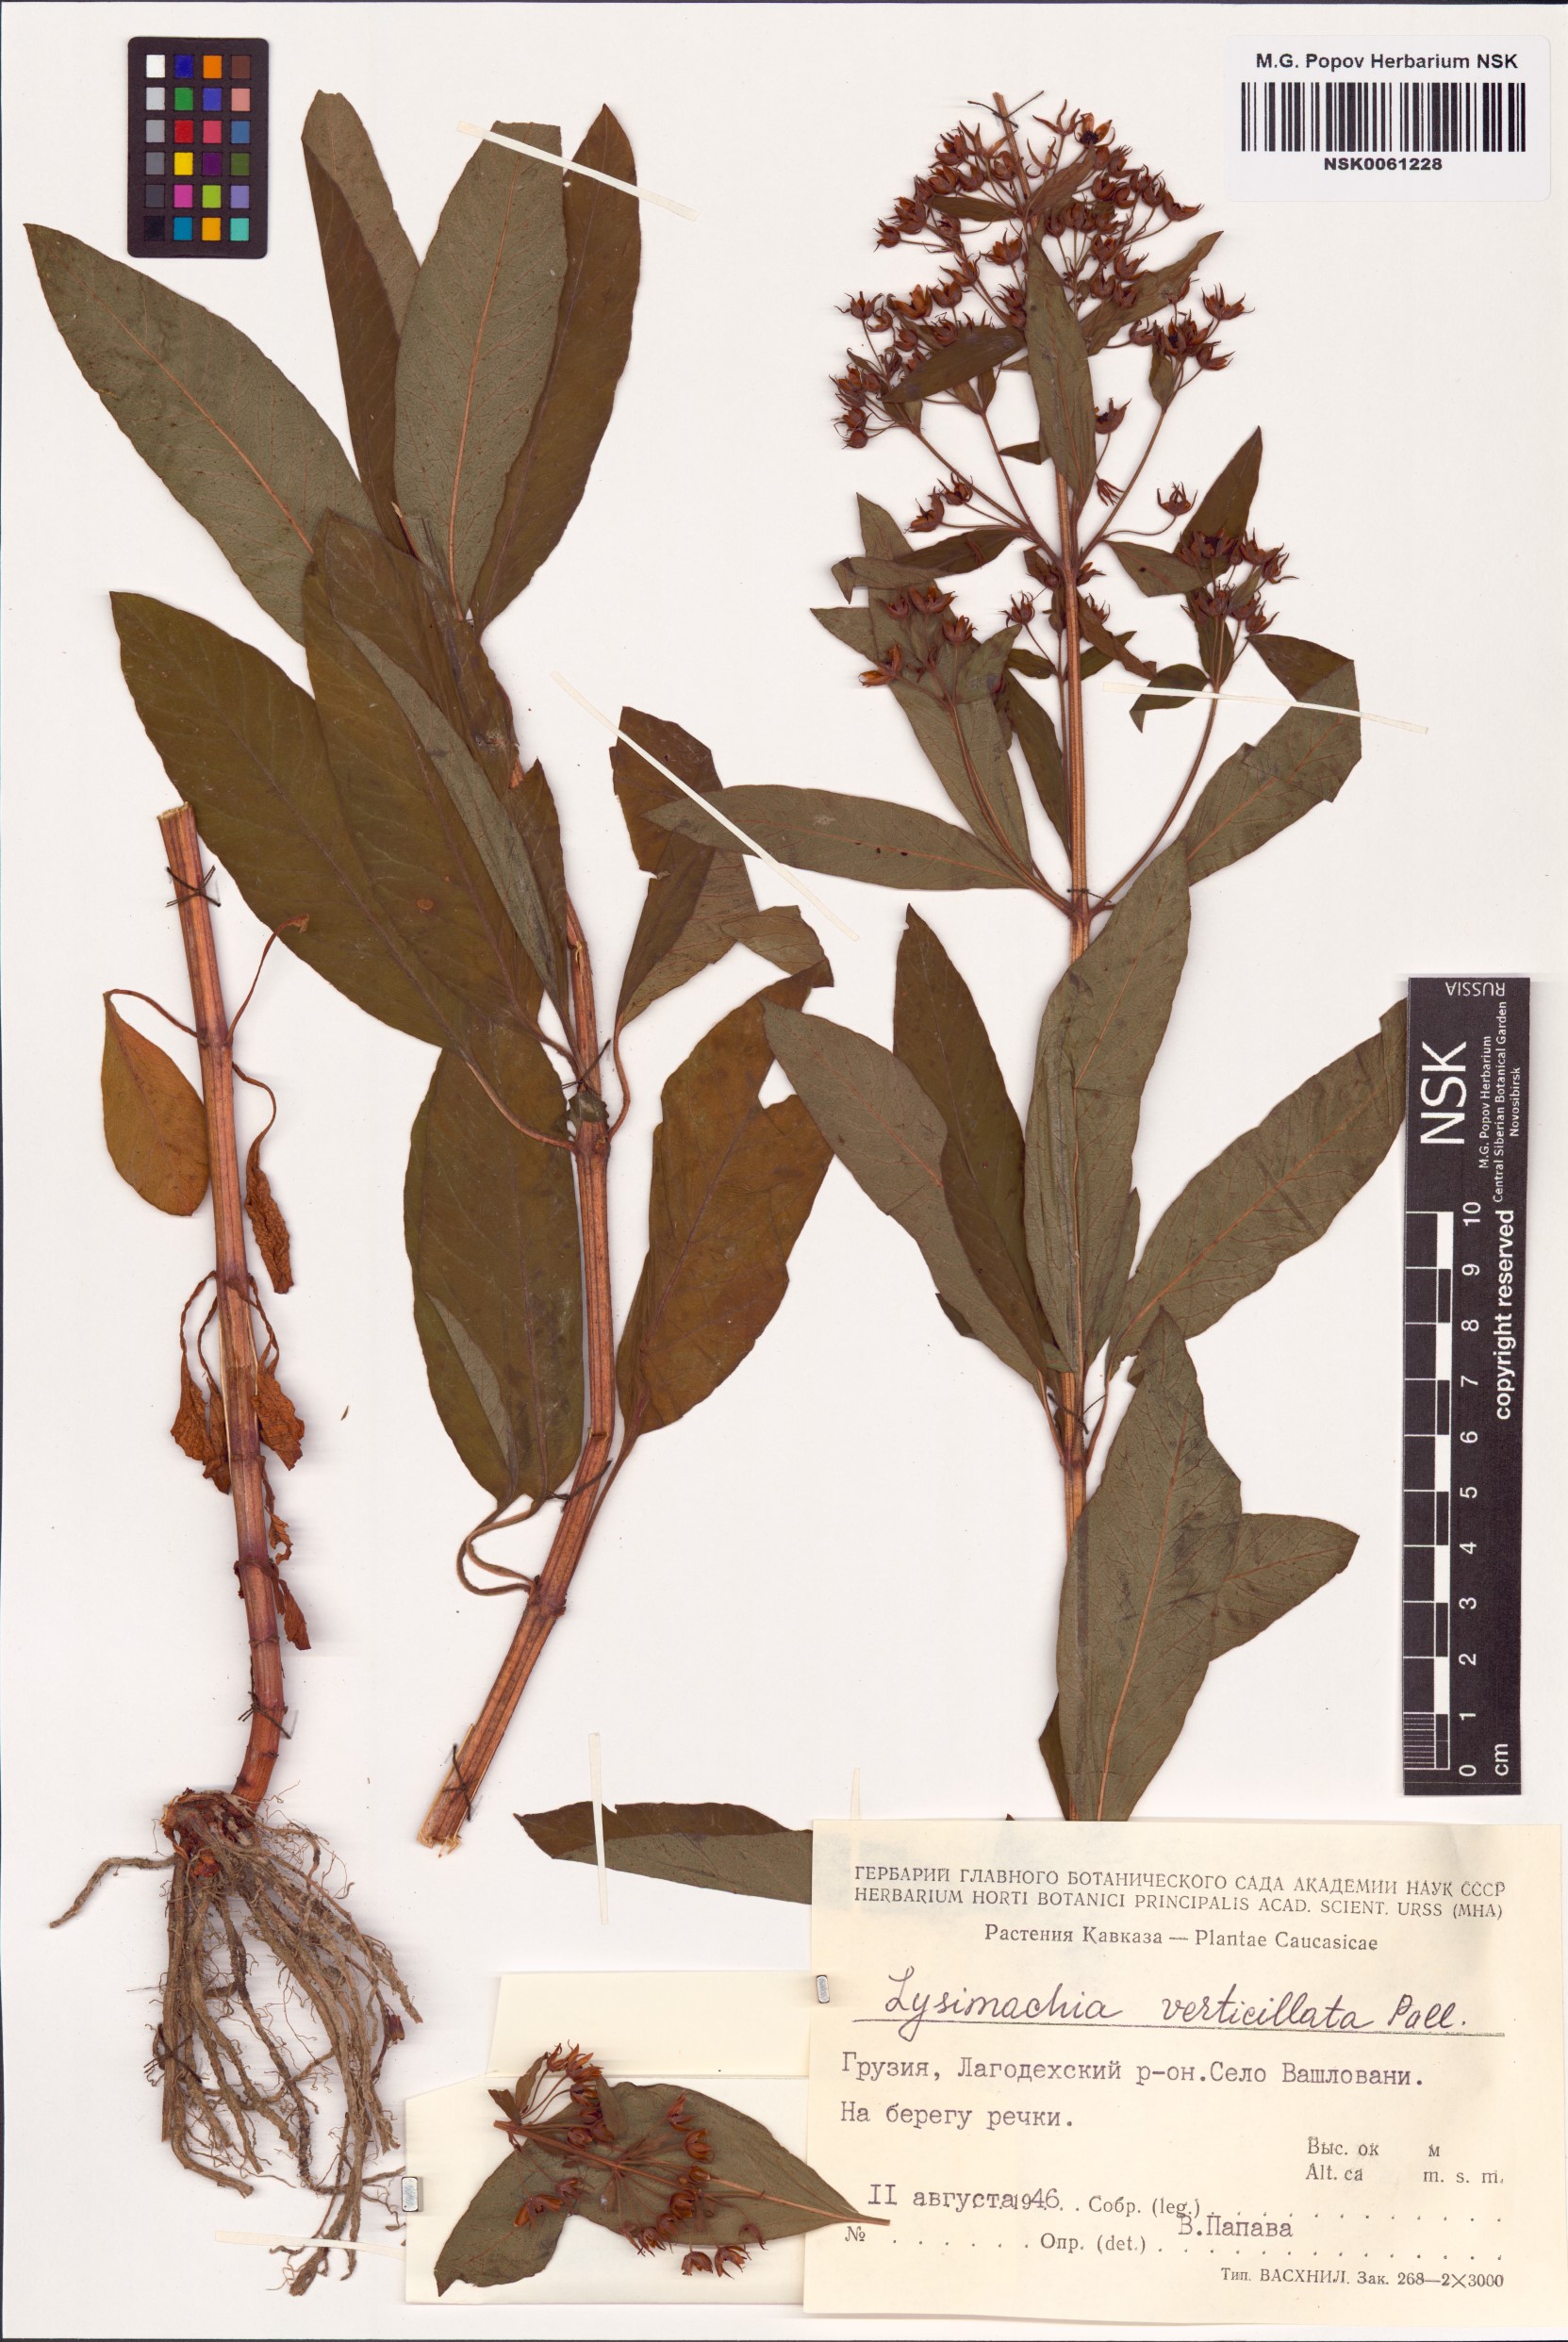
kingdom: Plantae
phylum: Tracheophyta
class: Magnoliopsida
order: Ericales
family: Primulaceae
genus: Lysimachia
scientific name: Lysimachia verticillaris
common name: Yellow loosestrife
